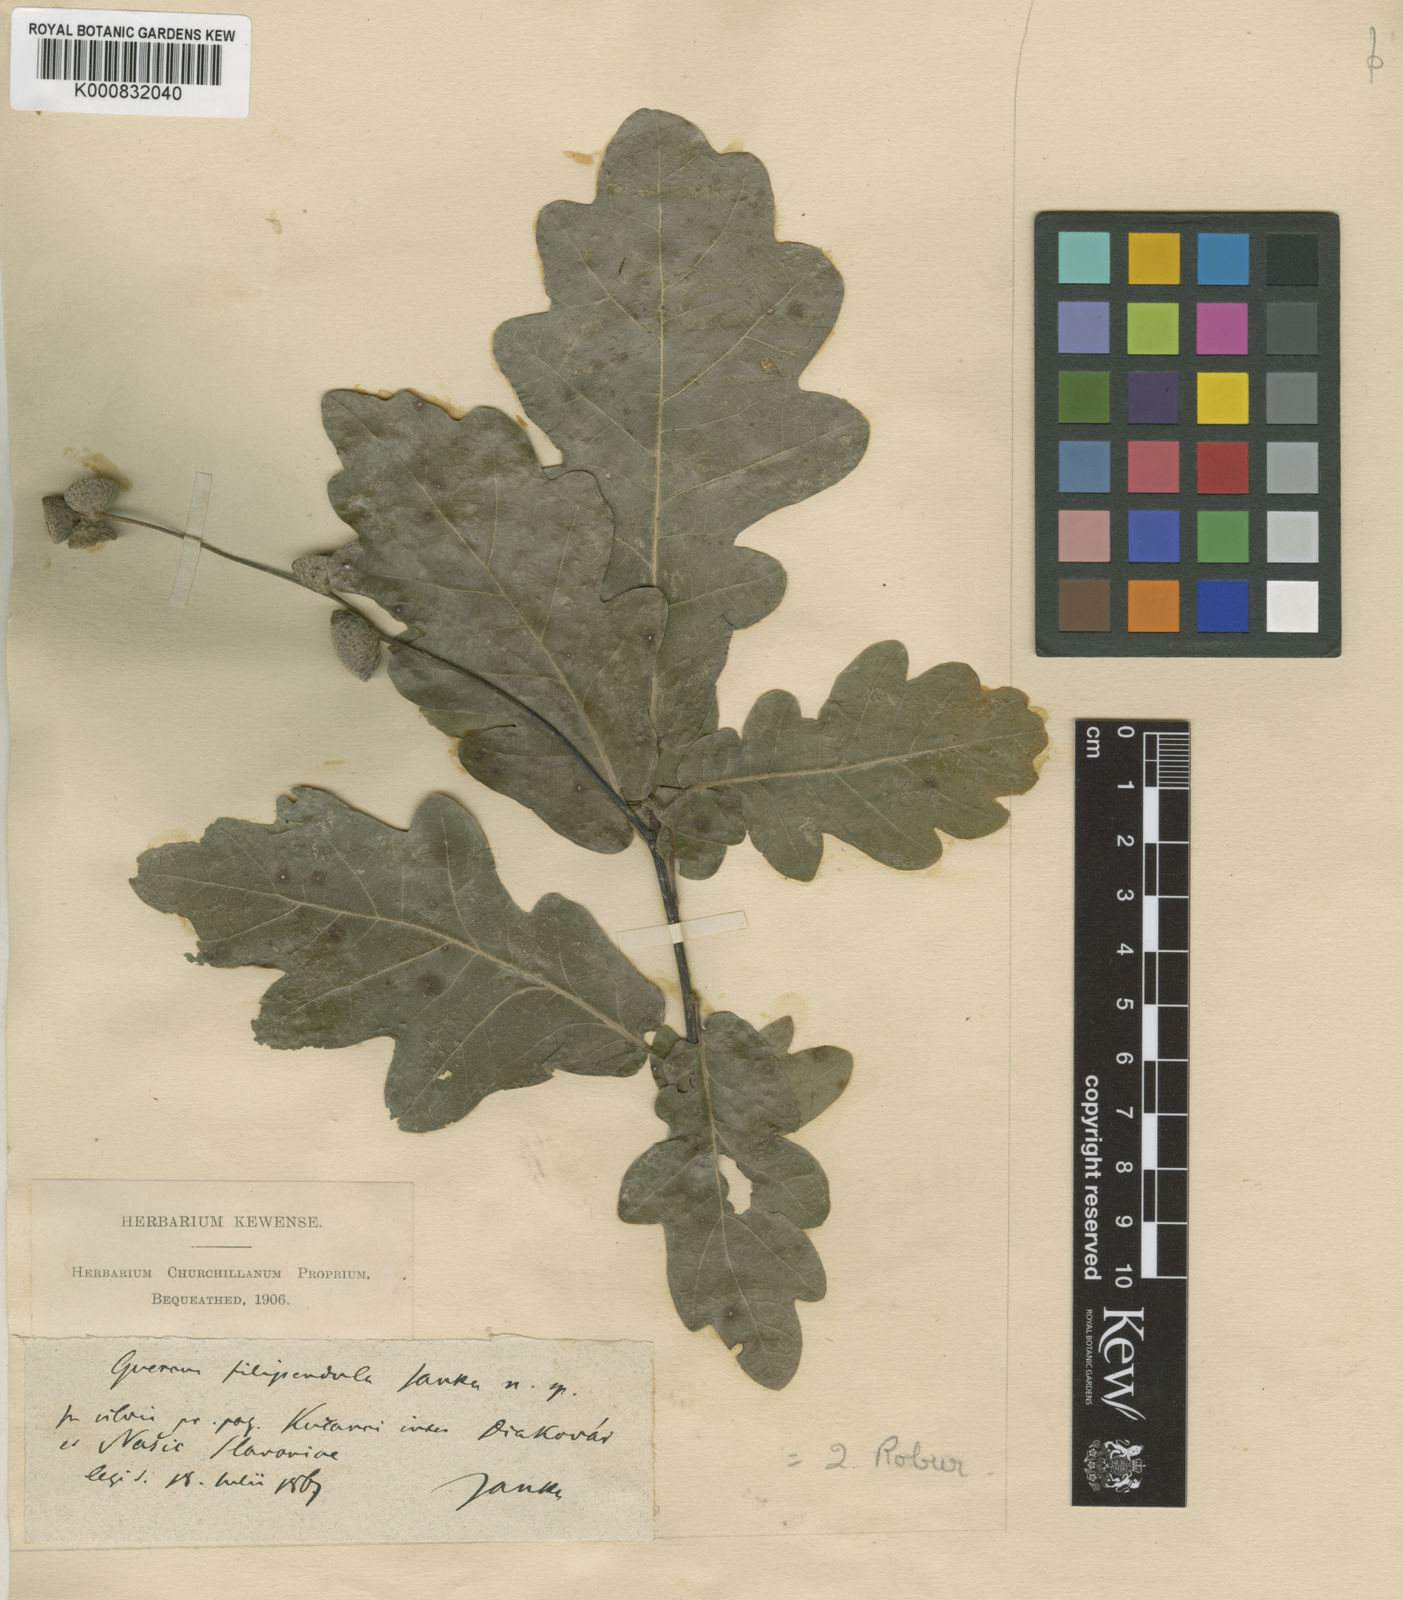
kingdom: Plantae
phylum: Tracheophyta
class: Magnoliopsida
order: Fagales
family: Fagaceae
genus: Quercus
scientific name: Quercus robur
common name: Pedunculate oak
